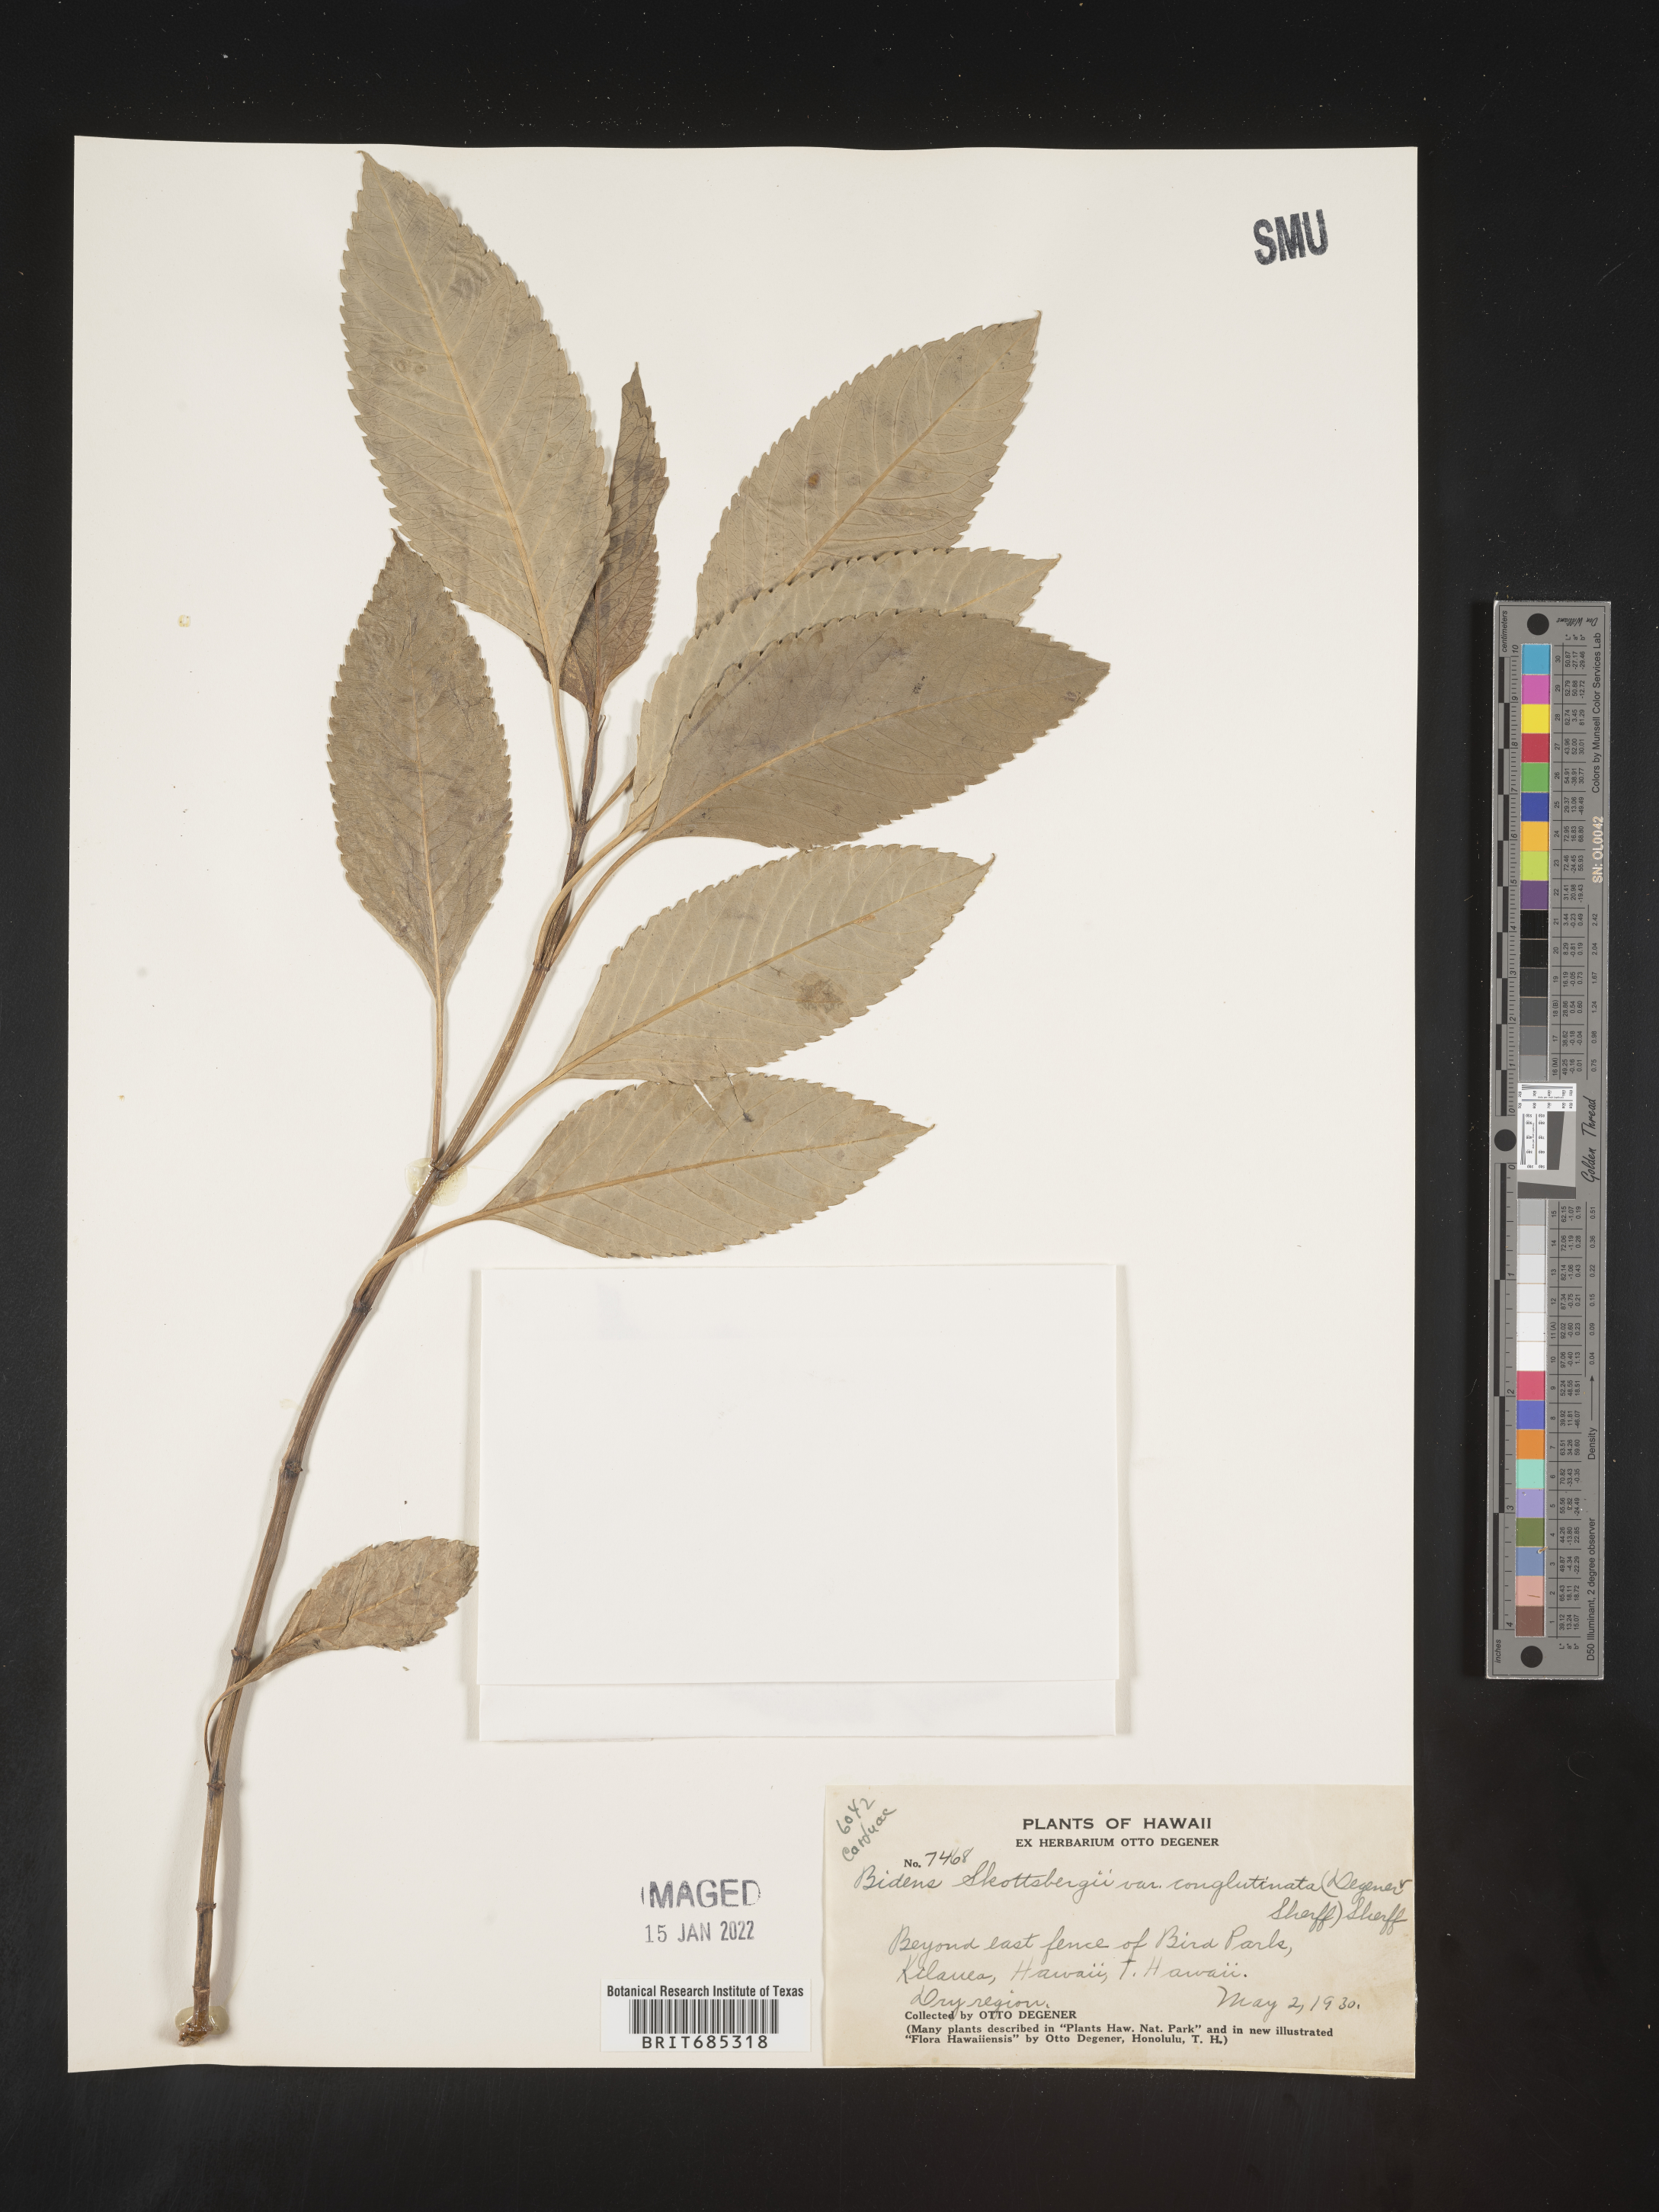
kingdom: Plantae
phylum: Tracheophyta
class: Magnoliopsida
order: Asterales
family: Asteraceae
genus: Bidens
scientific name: Bidens
